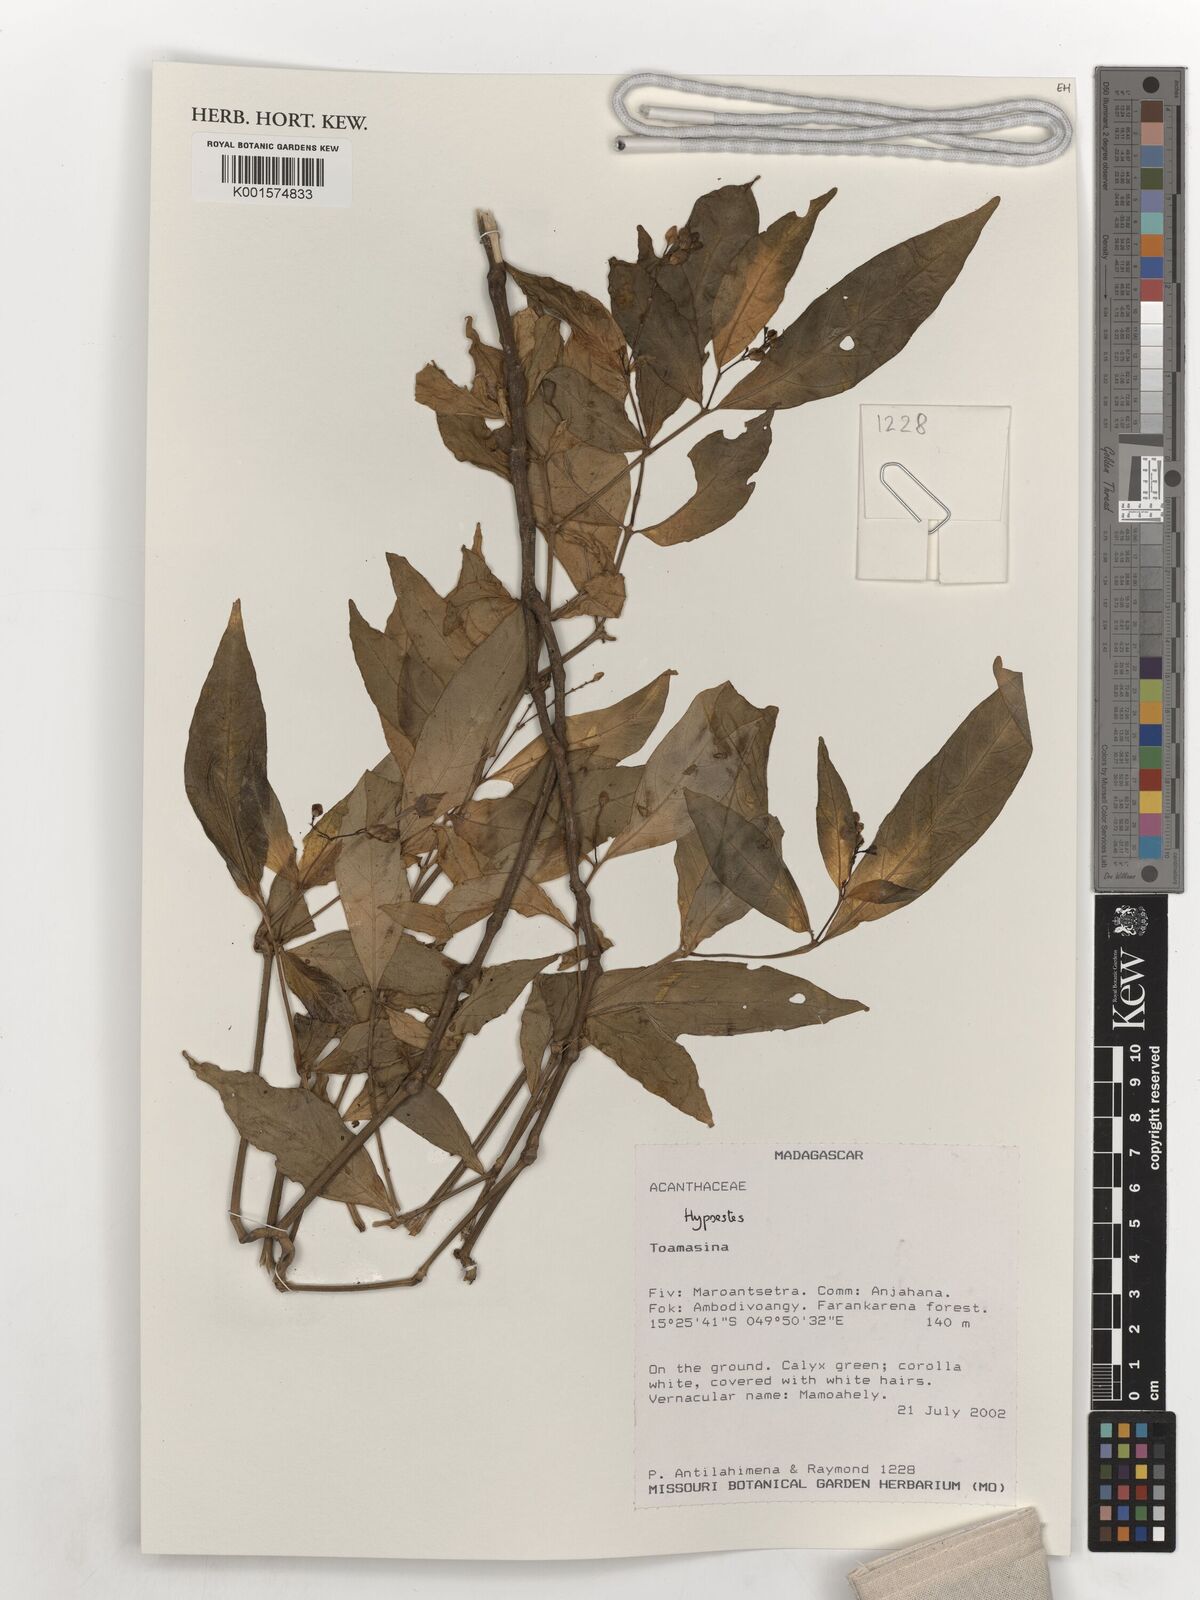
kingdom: Plantae
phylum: Tracheophyta
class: Magnoliopsida
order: Lamiales
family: Acanthaceae
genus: Hypoestes
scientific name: Hypoestes
